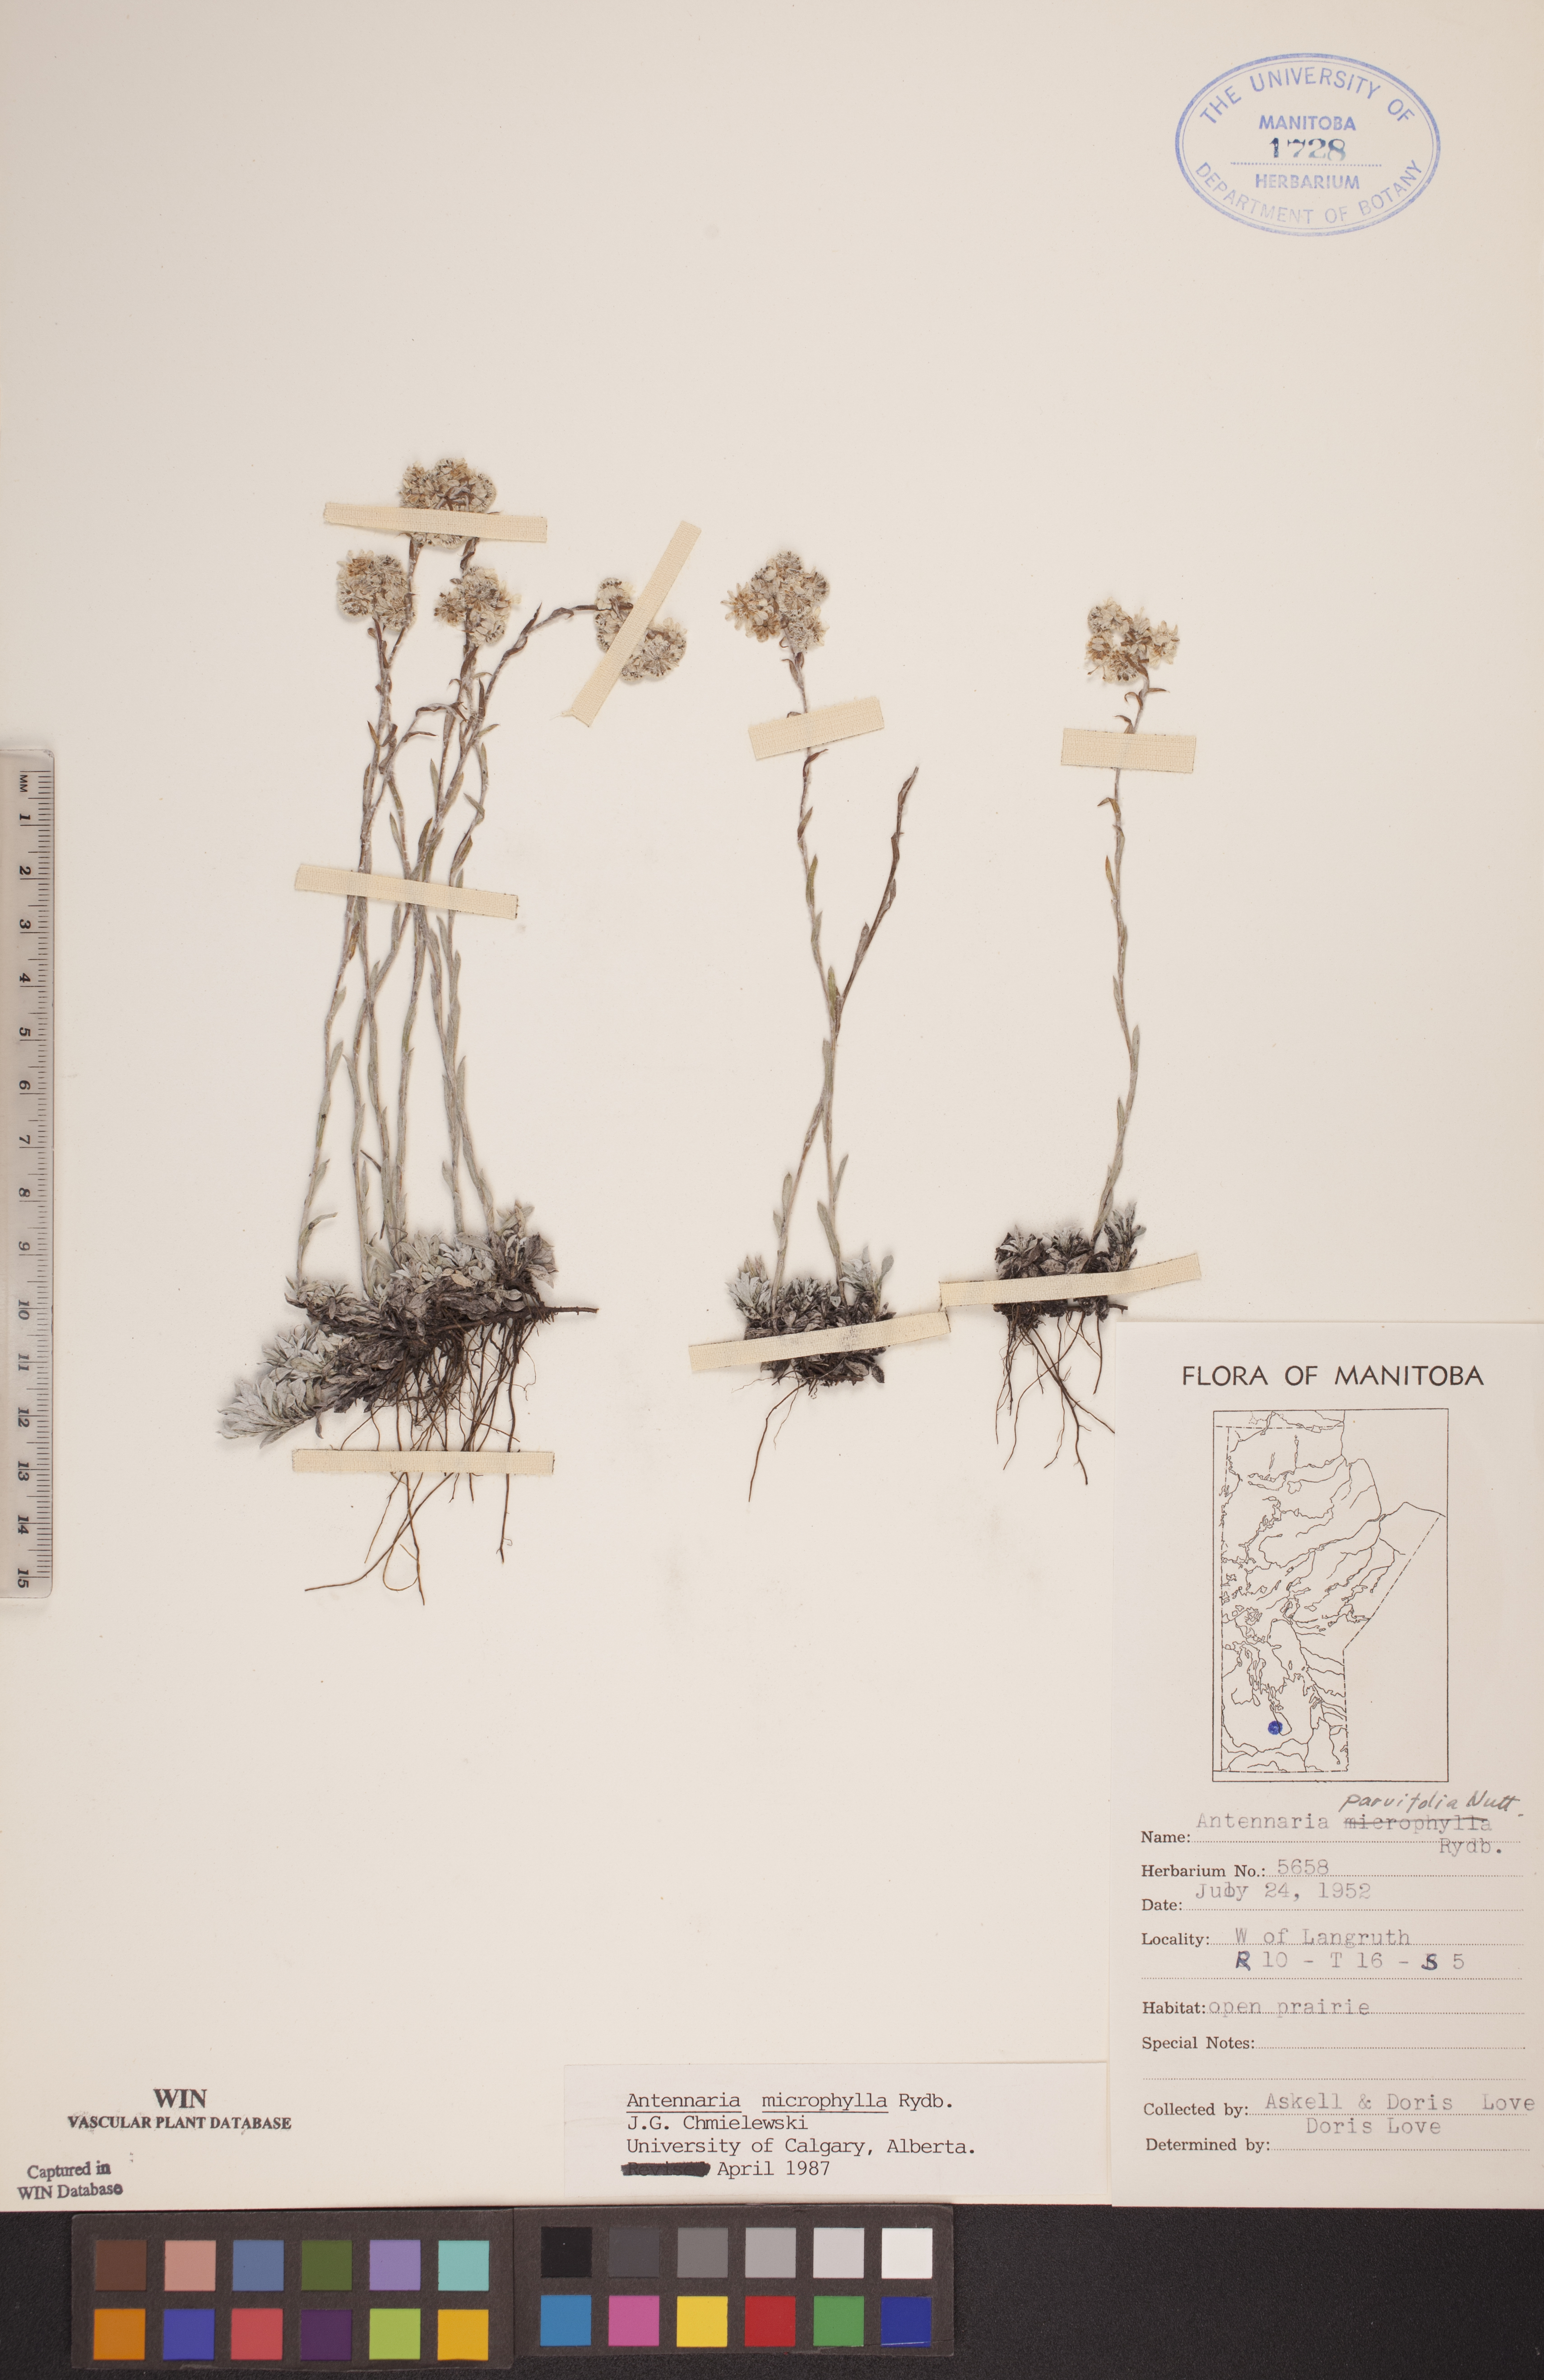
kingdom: Plantae
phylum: Tracheophyta
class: Magnoliopsida
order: Asterales
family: Asteraceae
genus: Antennaria
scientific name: Antennaria microphylla
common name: Littleleaf pussytoes
